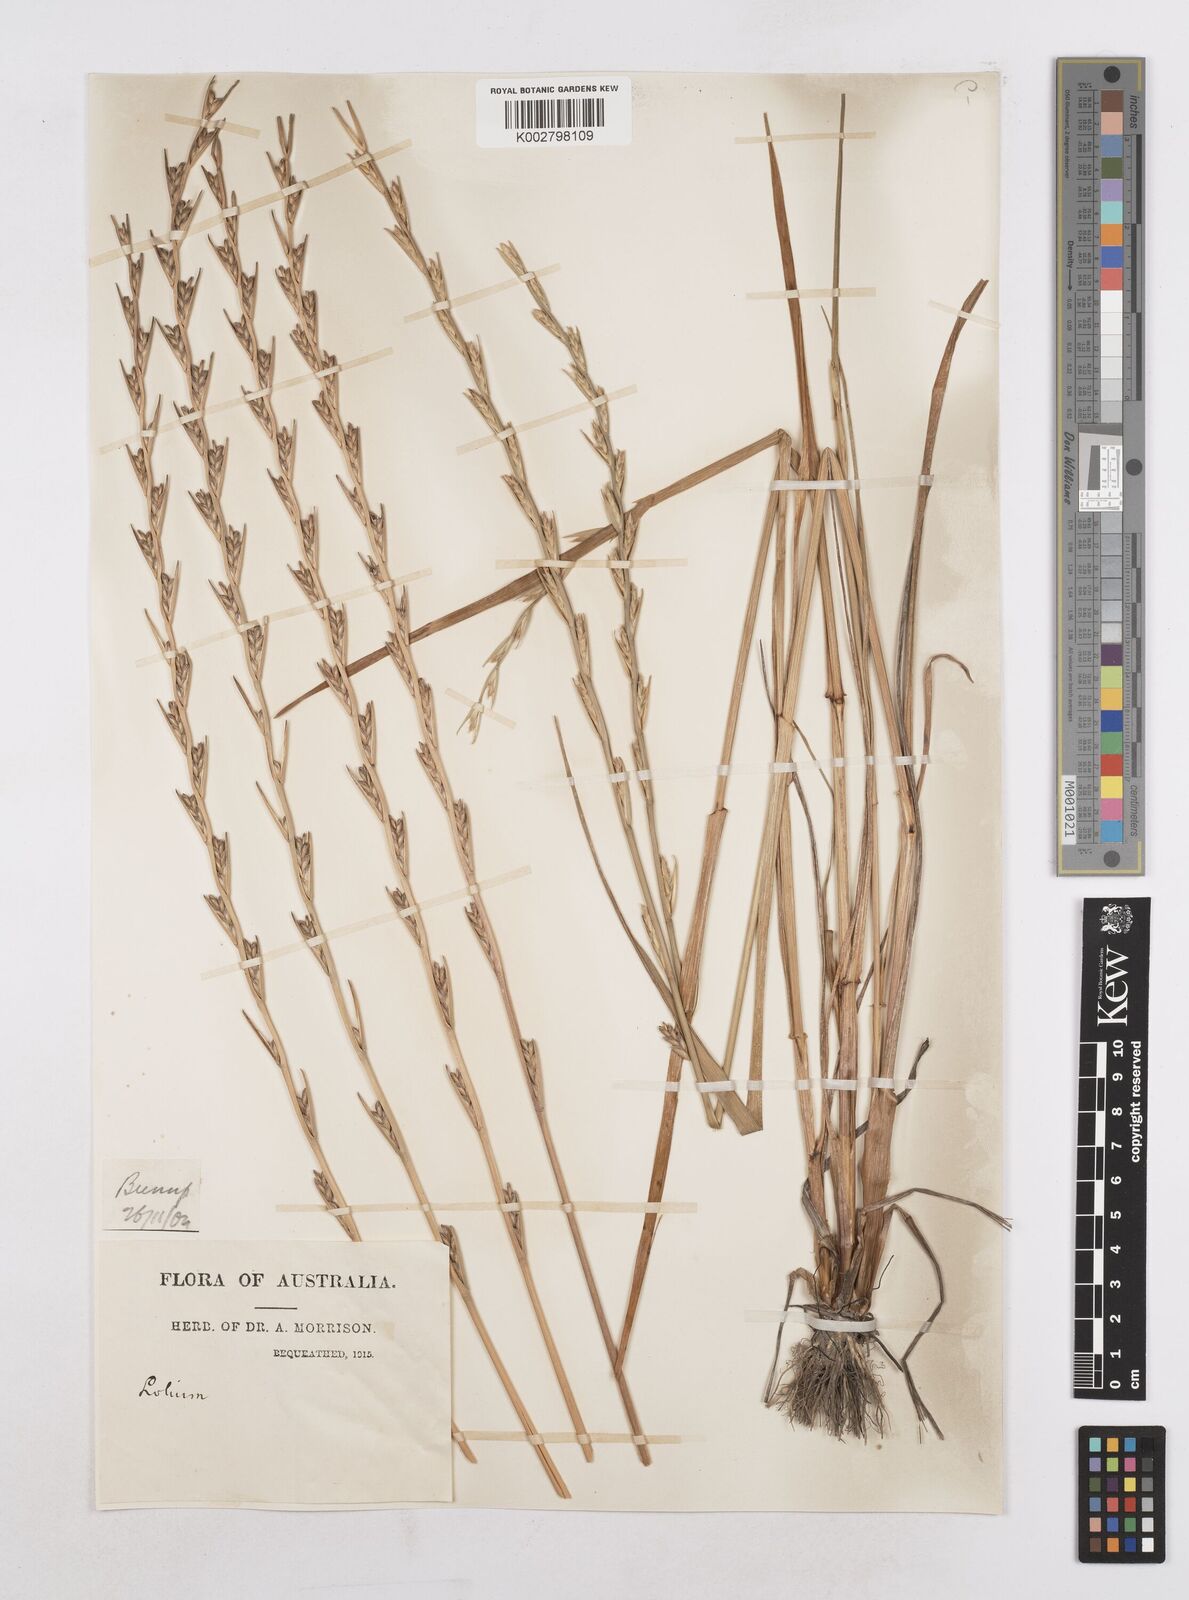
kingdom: Plantae
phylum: Tracheophyta
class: Liliopsida
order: Poales
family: Poaceae
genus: Lolium
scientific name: Lolium temulentum
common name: Darnel
